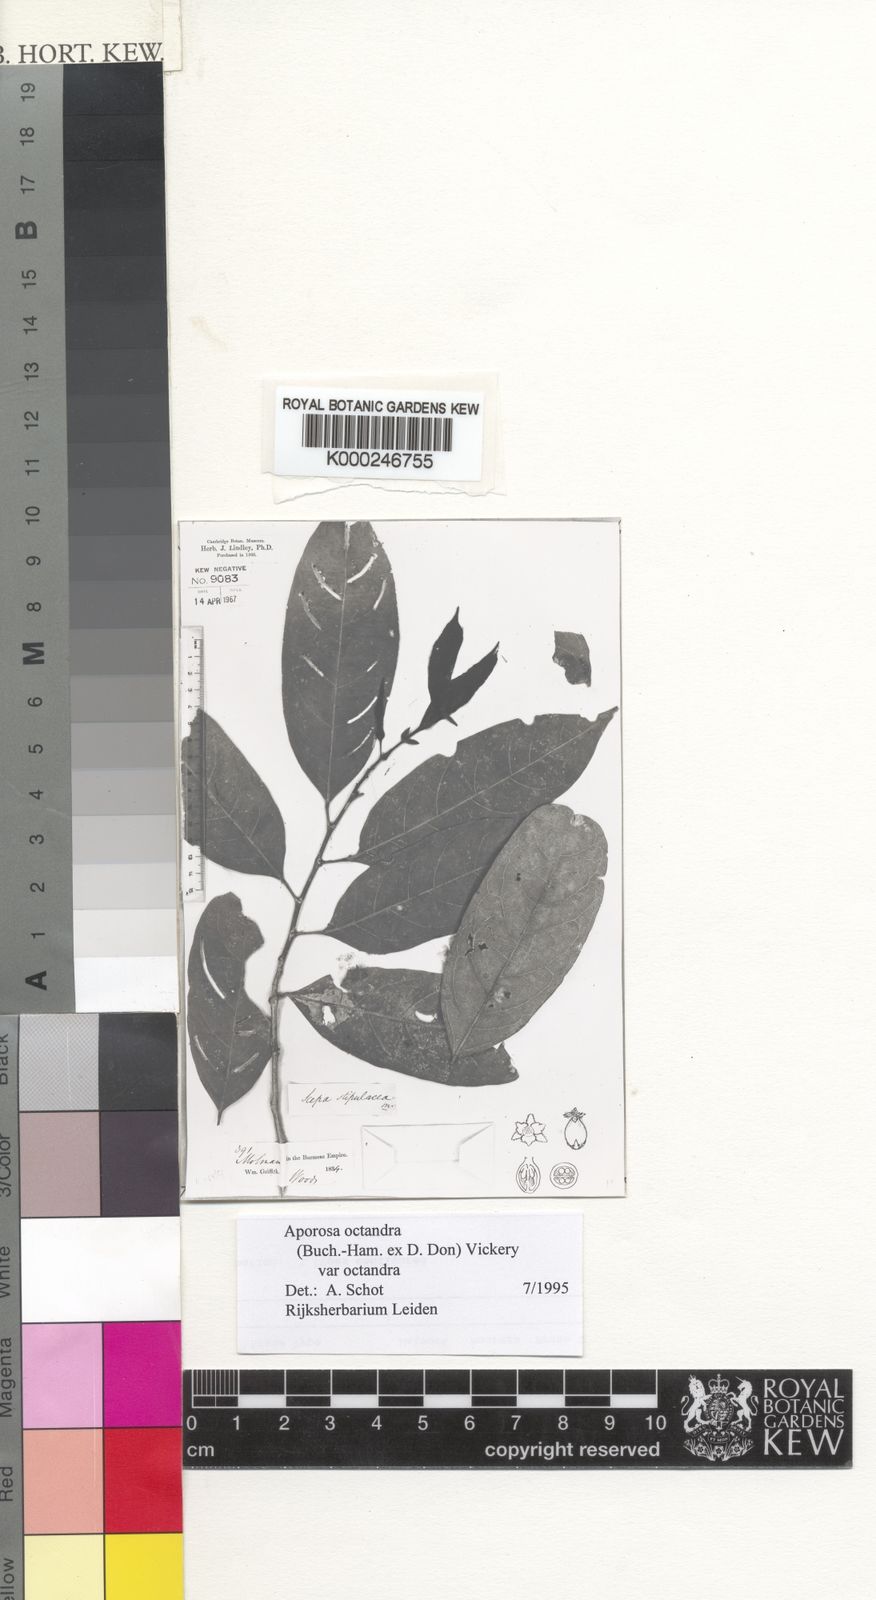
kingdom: Plantae
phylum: Tracheophyta
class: Magnoliopsida
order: Malpighiales
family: Phyllanthaceae
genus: Aporosa
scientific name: Aporosa octandra
